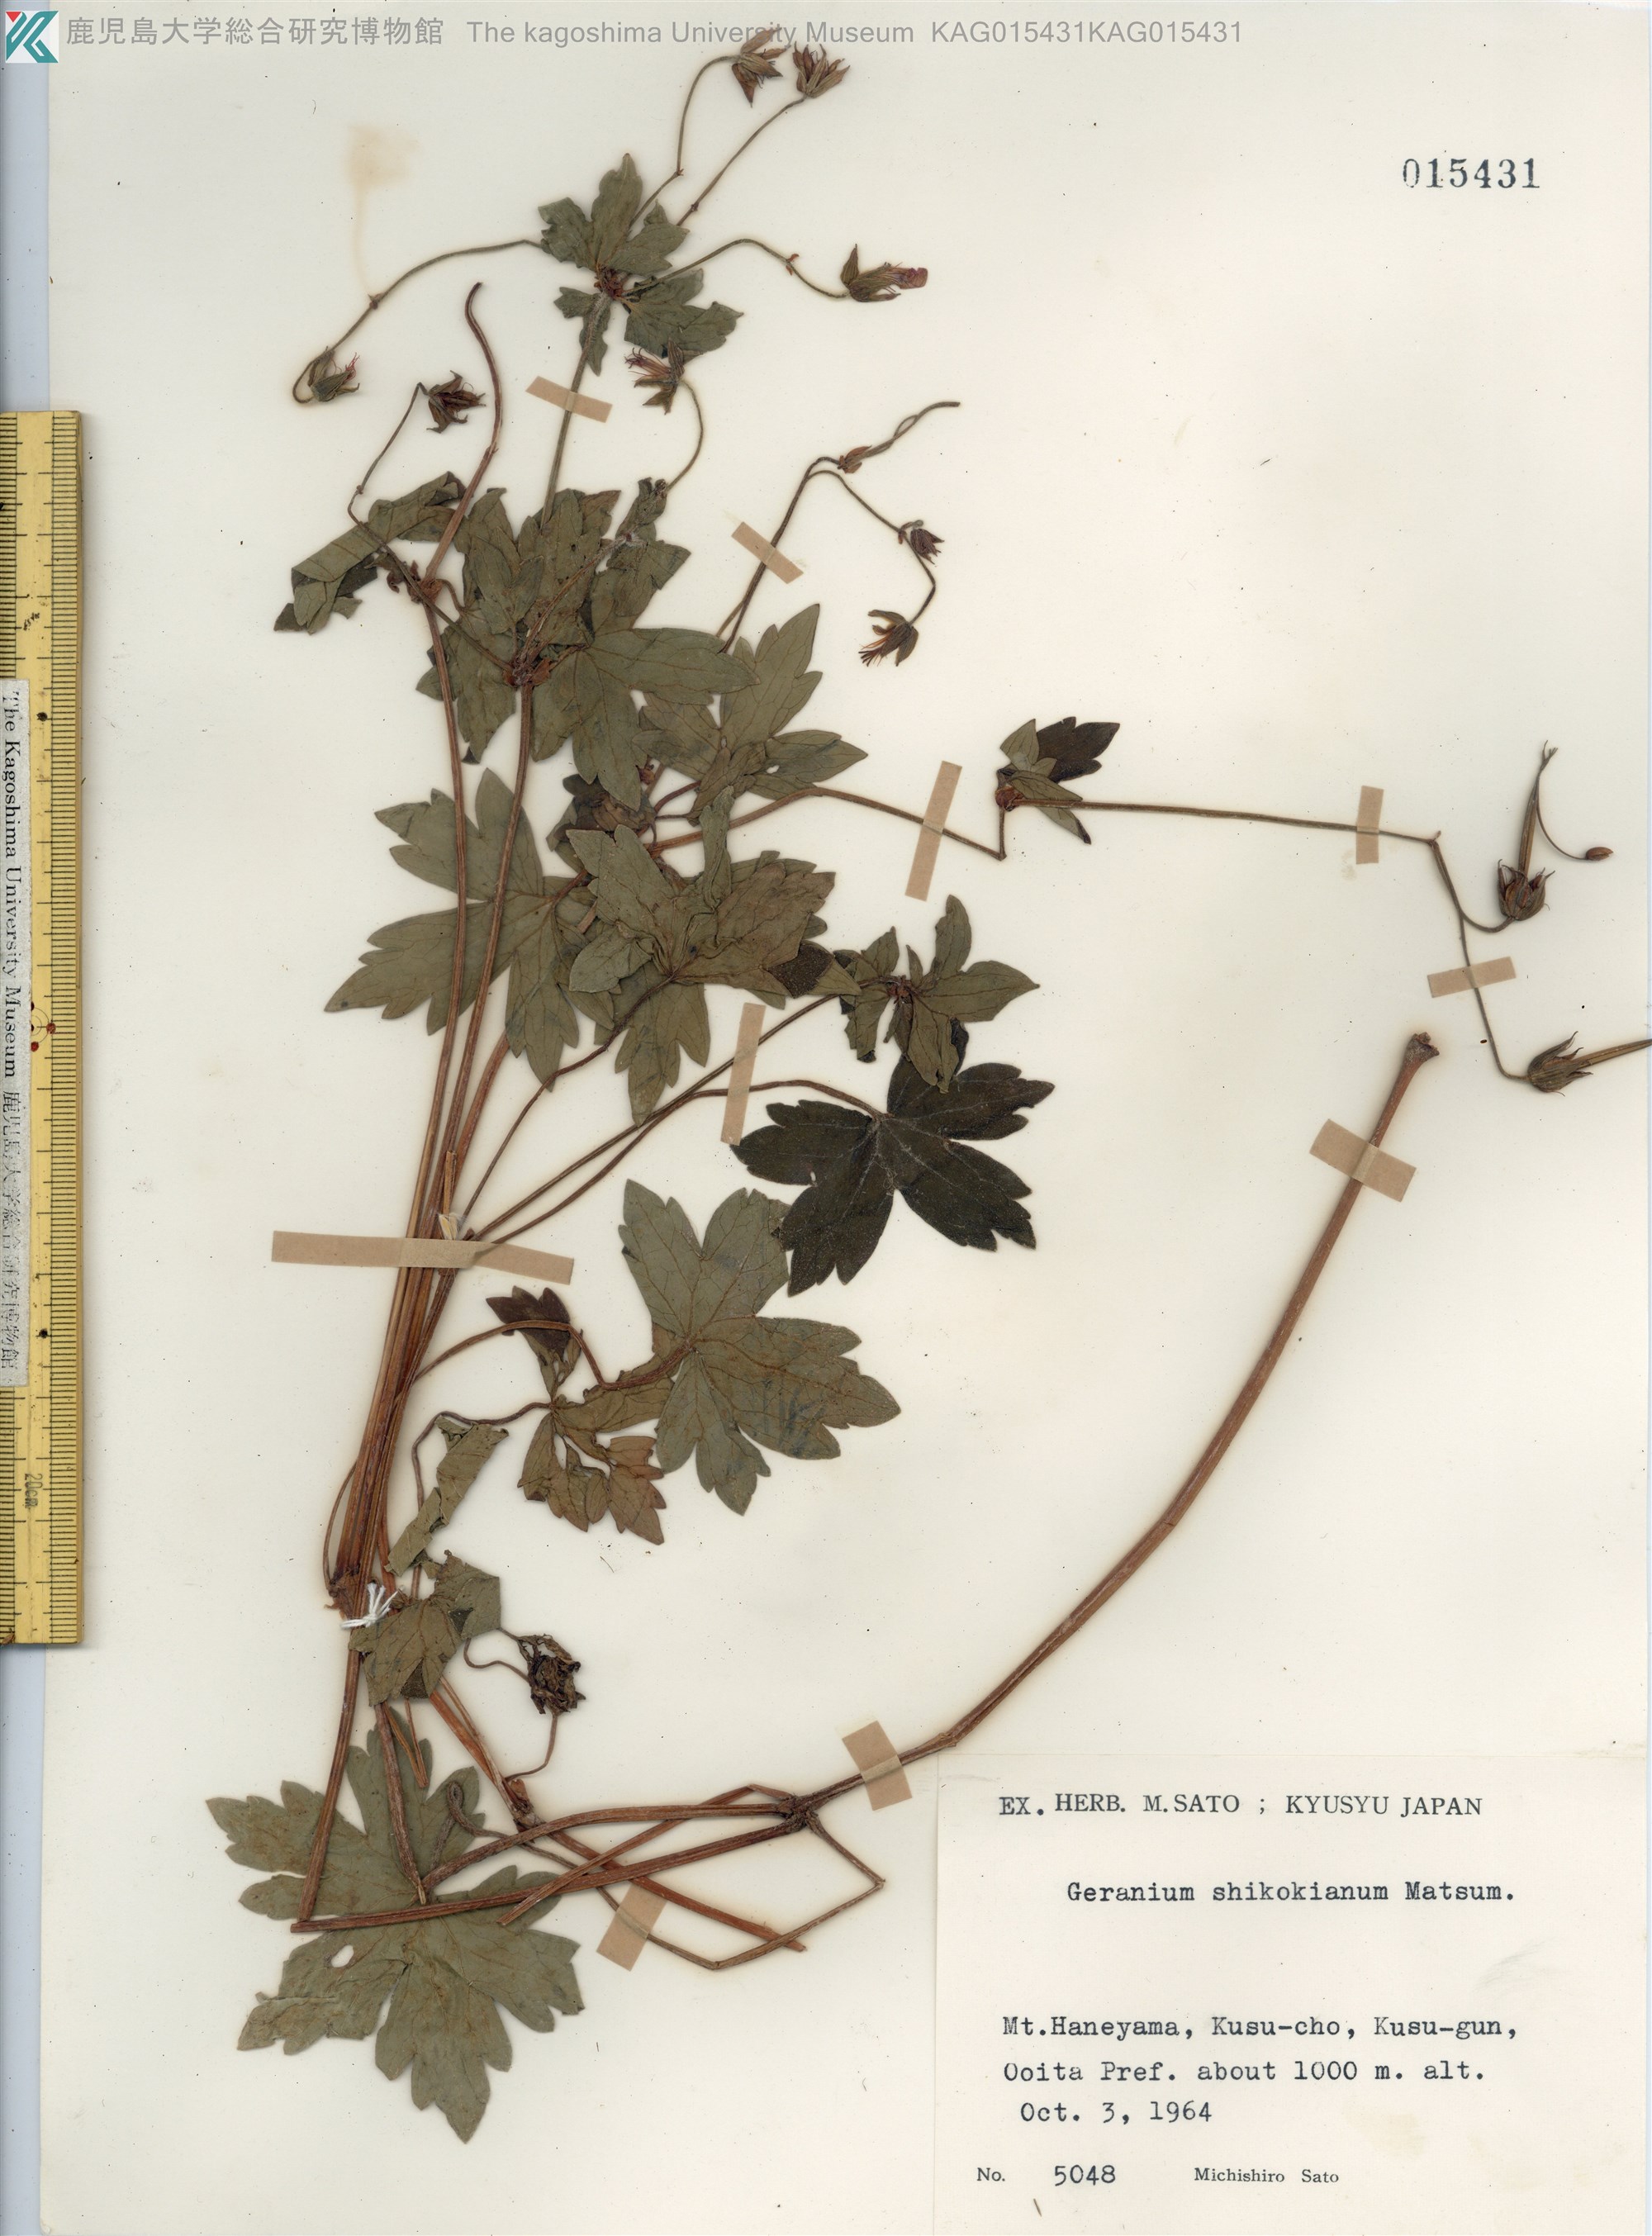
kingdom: Plantae
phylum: Tracheophyta
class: Magnoliopsida
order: Geraniales
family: Geraniaceae
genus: Geranium
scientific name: Geranium shikokianum
